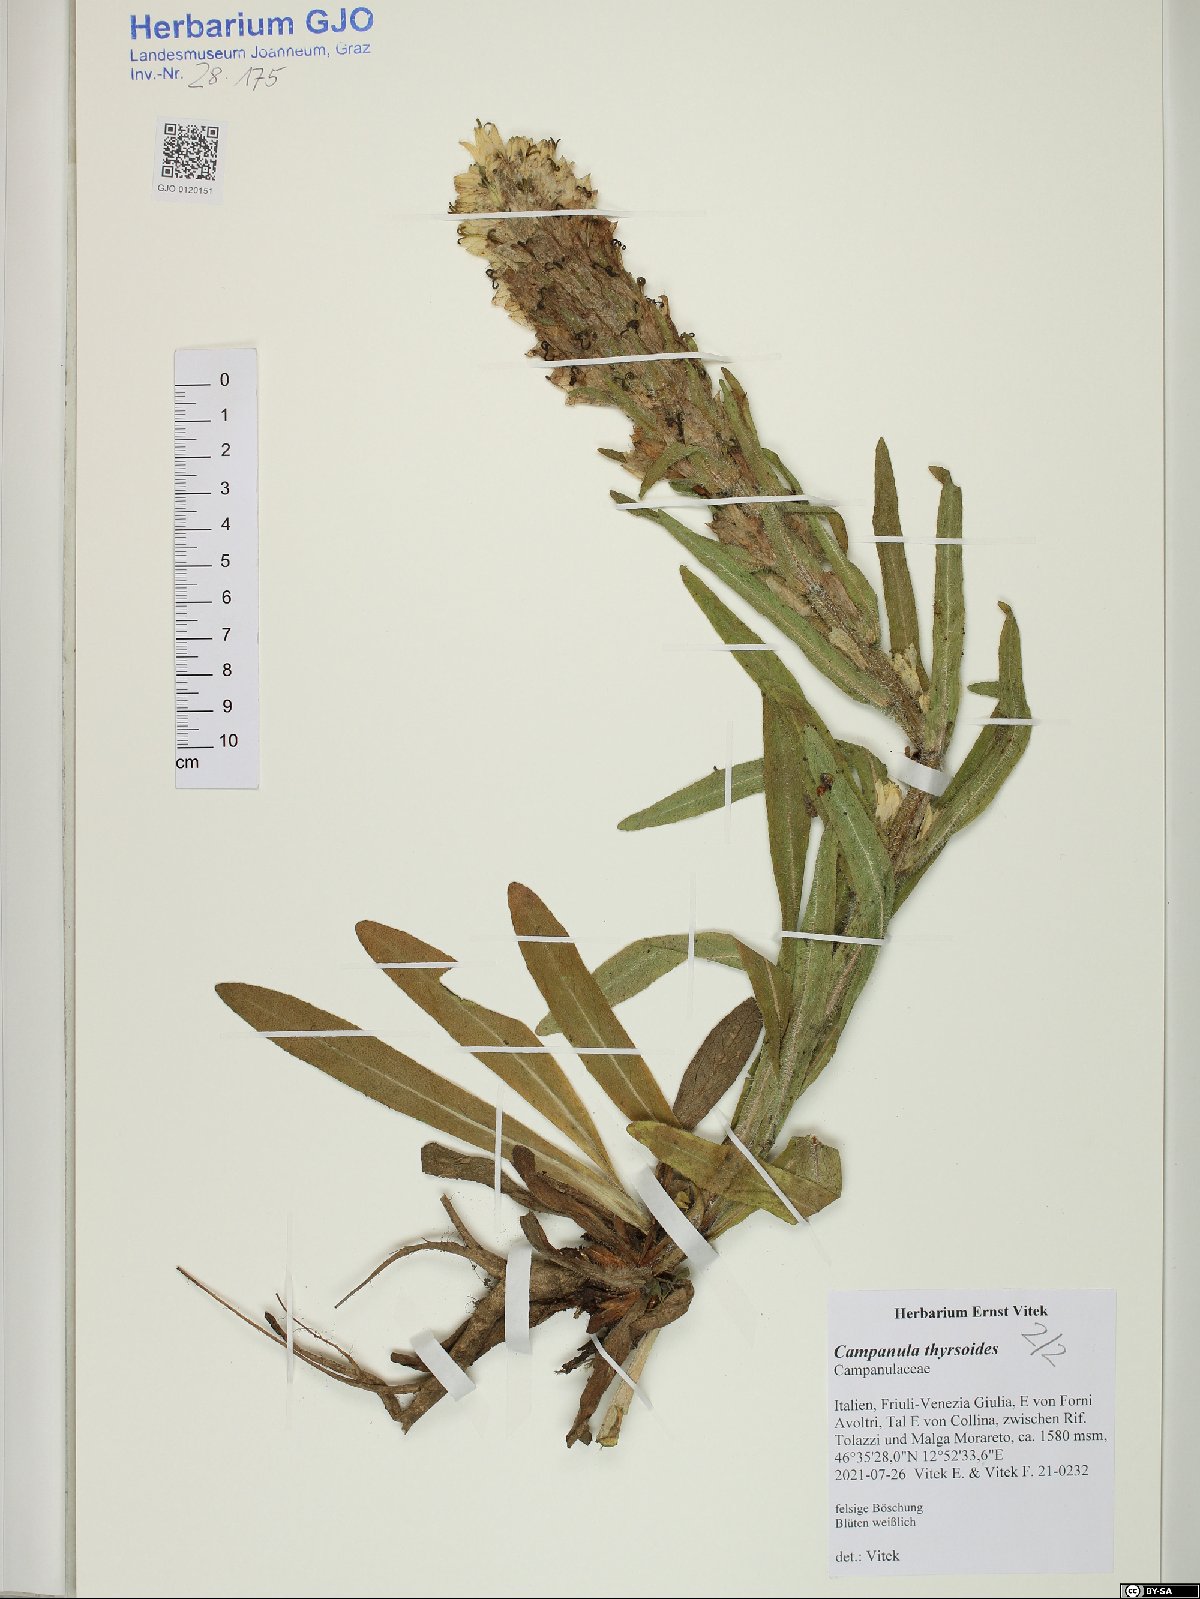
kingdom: Plantae
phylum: Tracheophyta
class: Magnoliopsida
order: Asterales
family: Campanulaceae
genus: Campanula
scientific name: Campanula thyrsoides
